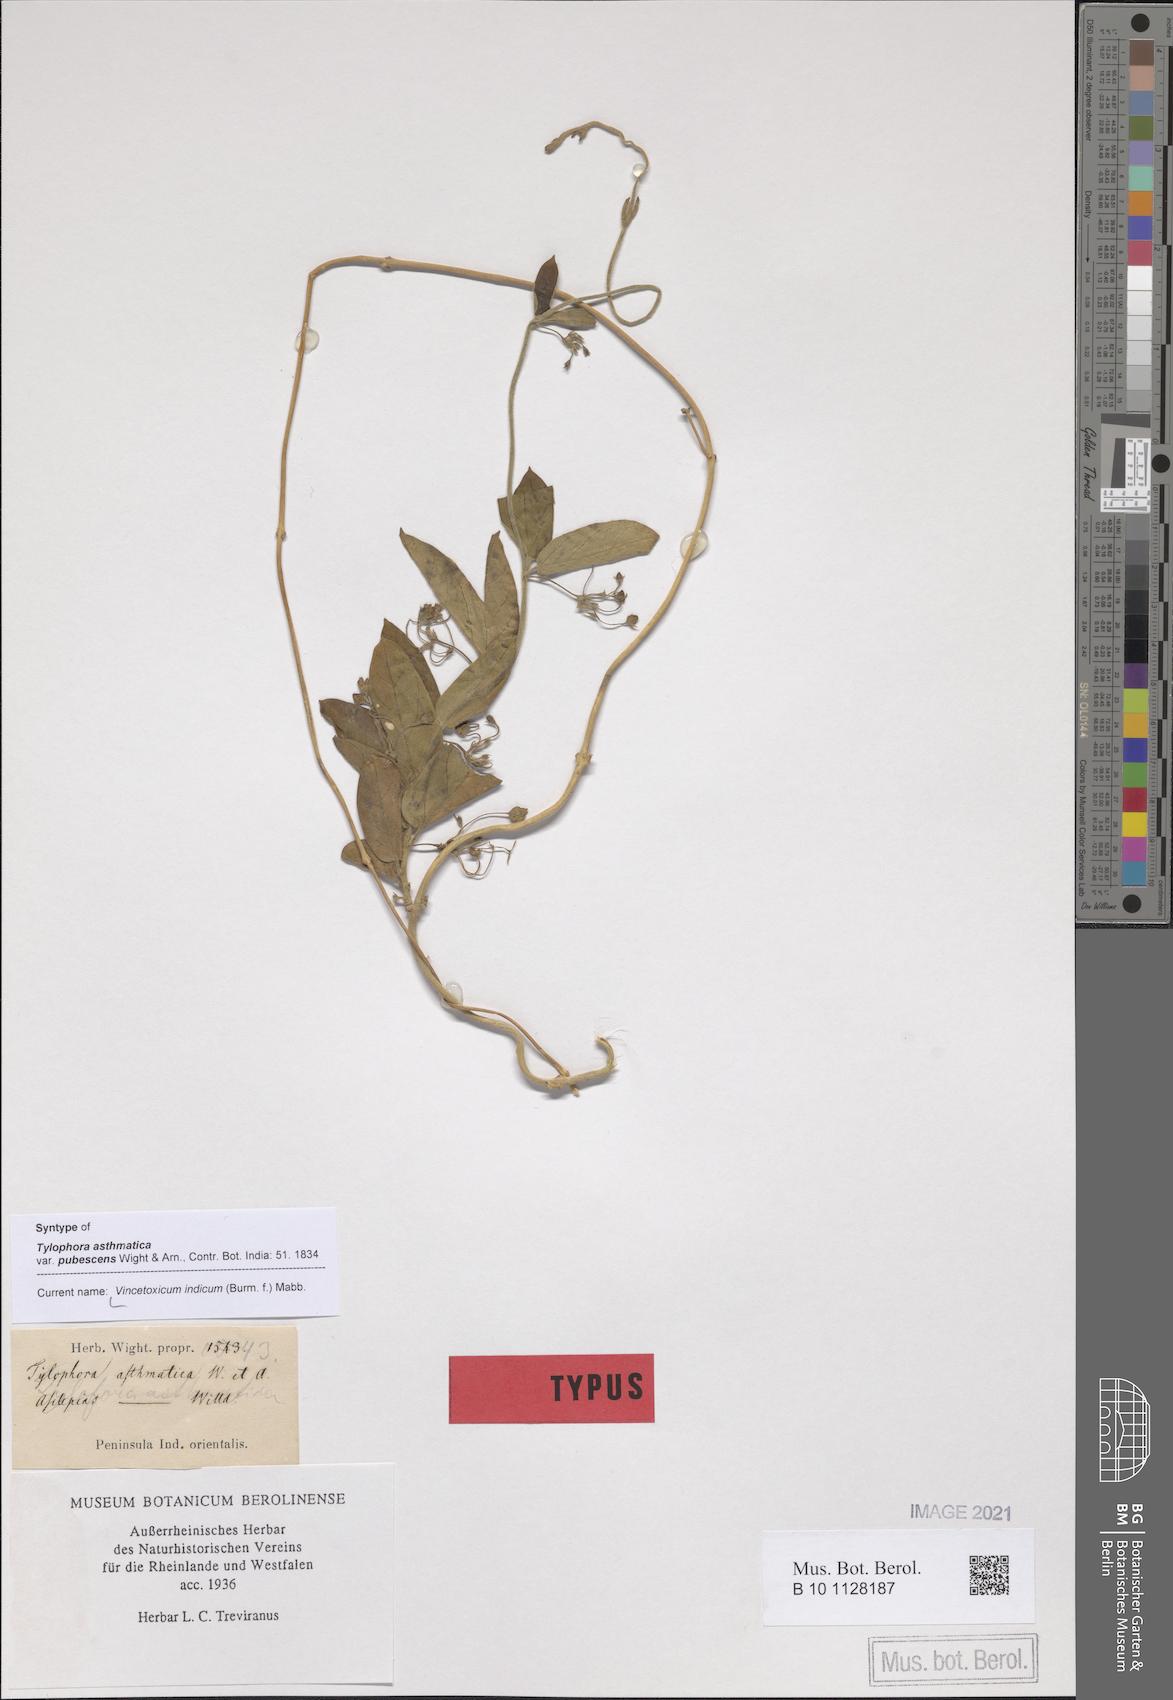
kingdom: Plantae
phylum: Tracheophyta
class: Magnoliopsida
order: Gentianales
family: Apocynaceae
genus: Vincetoxicum
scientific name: Vincetoxicum indicum
